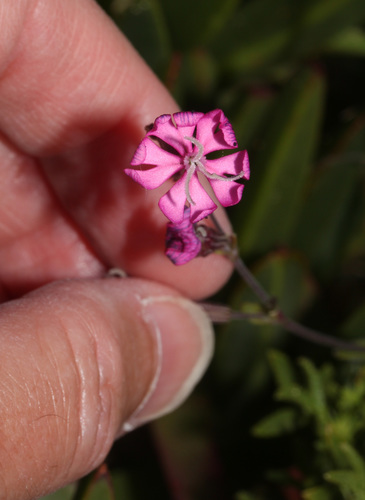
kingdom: Plantae
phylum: Tracheophyta
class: Magnoliopsida
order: Caryophyllales
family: Caryophyllaceae
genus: Silene
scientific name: Silene scabriflora
